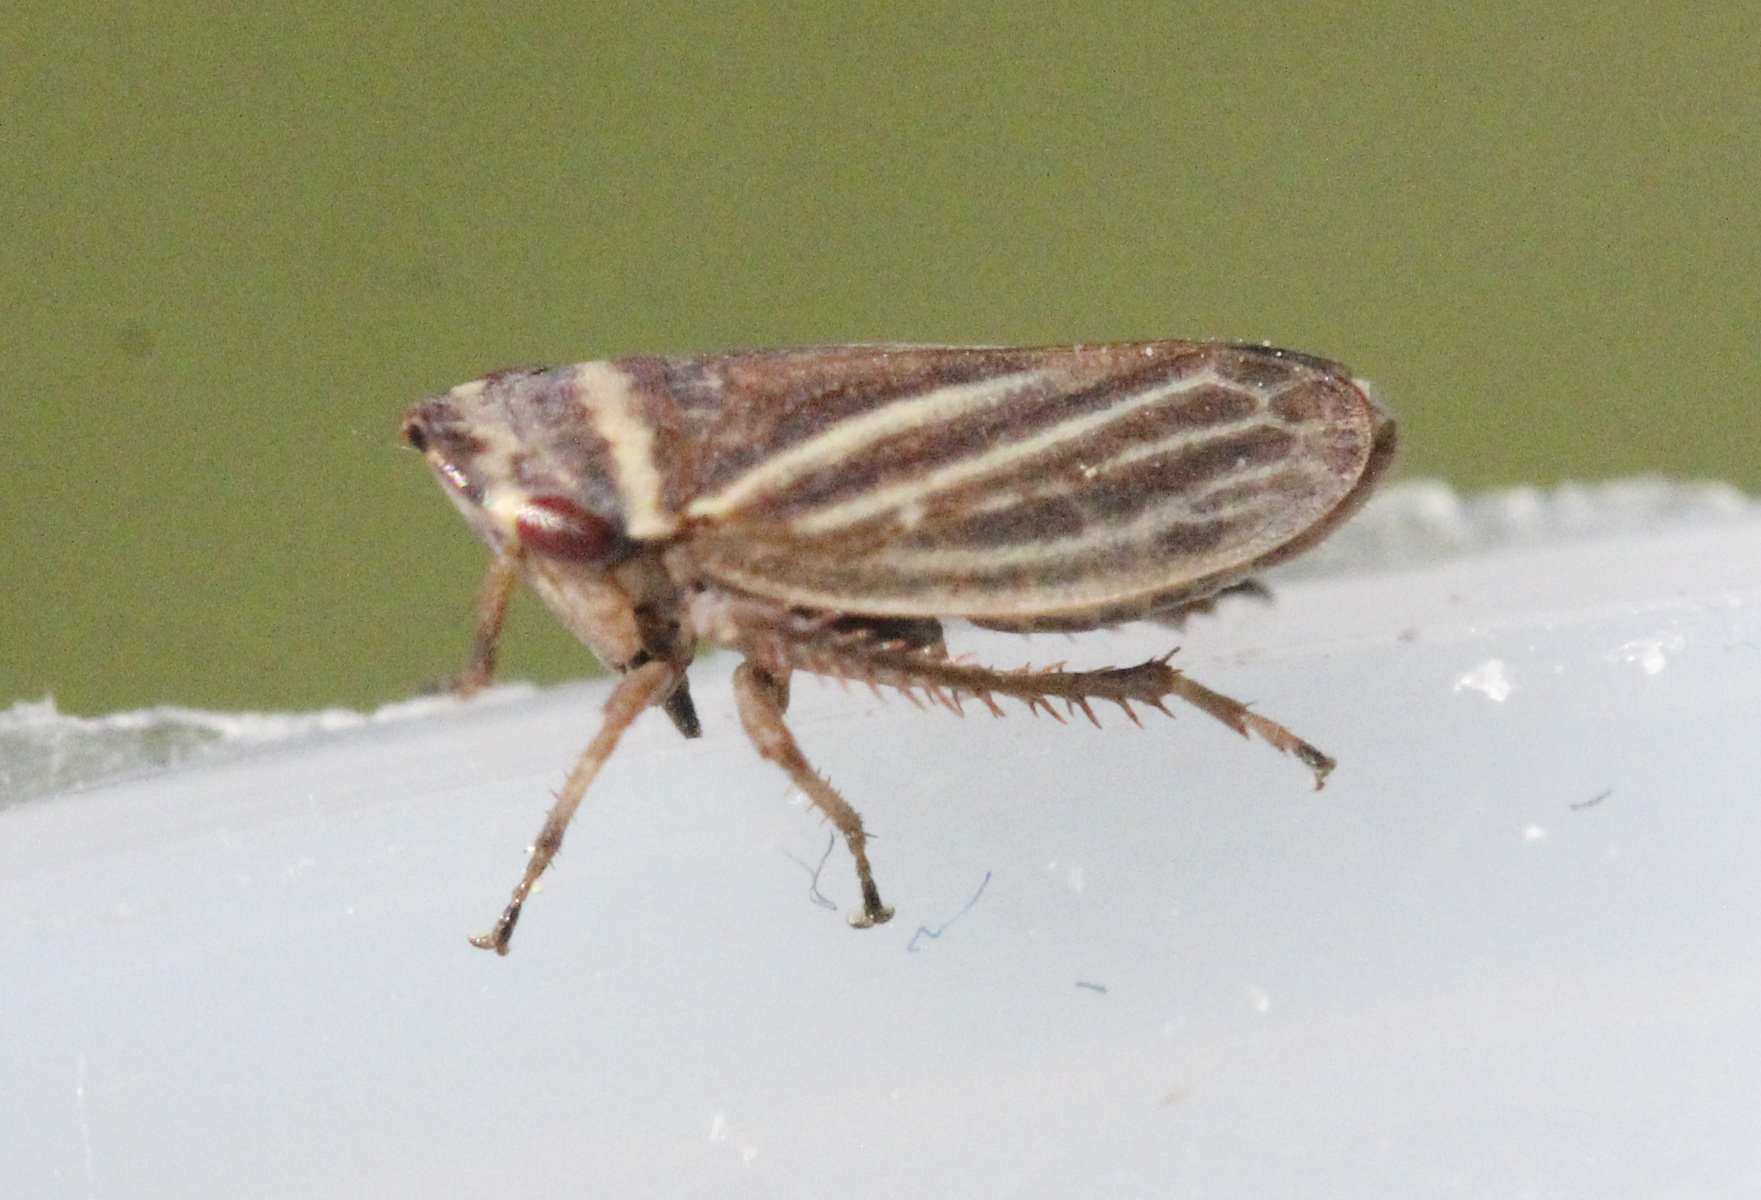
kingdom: Animalia
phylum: Arthropoda
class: Insecta
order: Hemiptera
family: Cicadellidae
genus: Aphrodes
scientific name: Aphrodes
